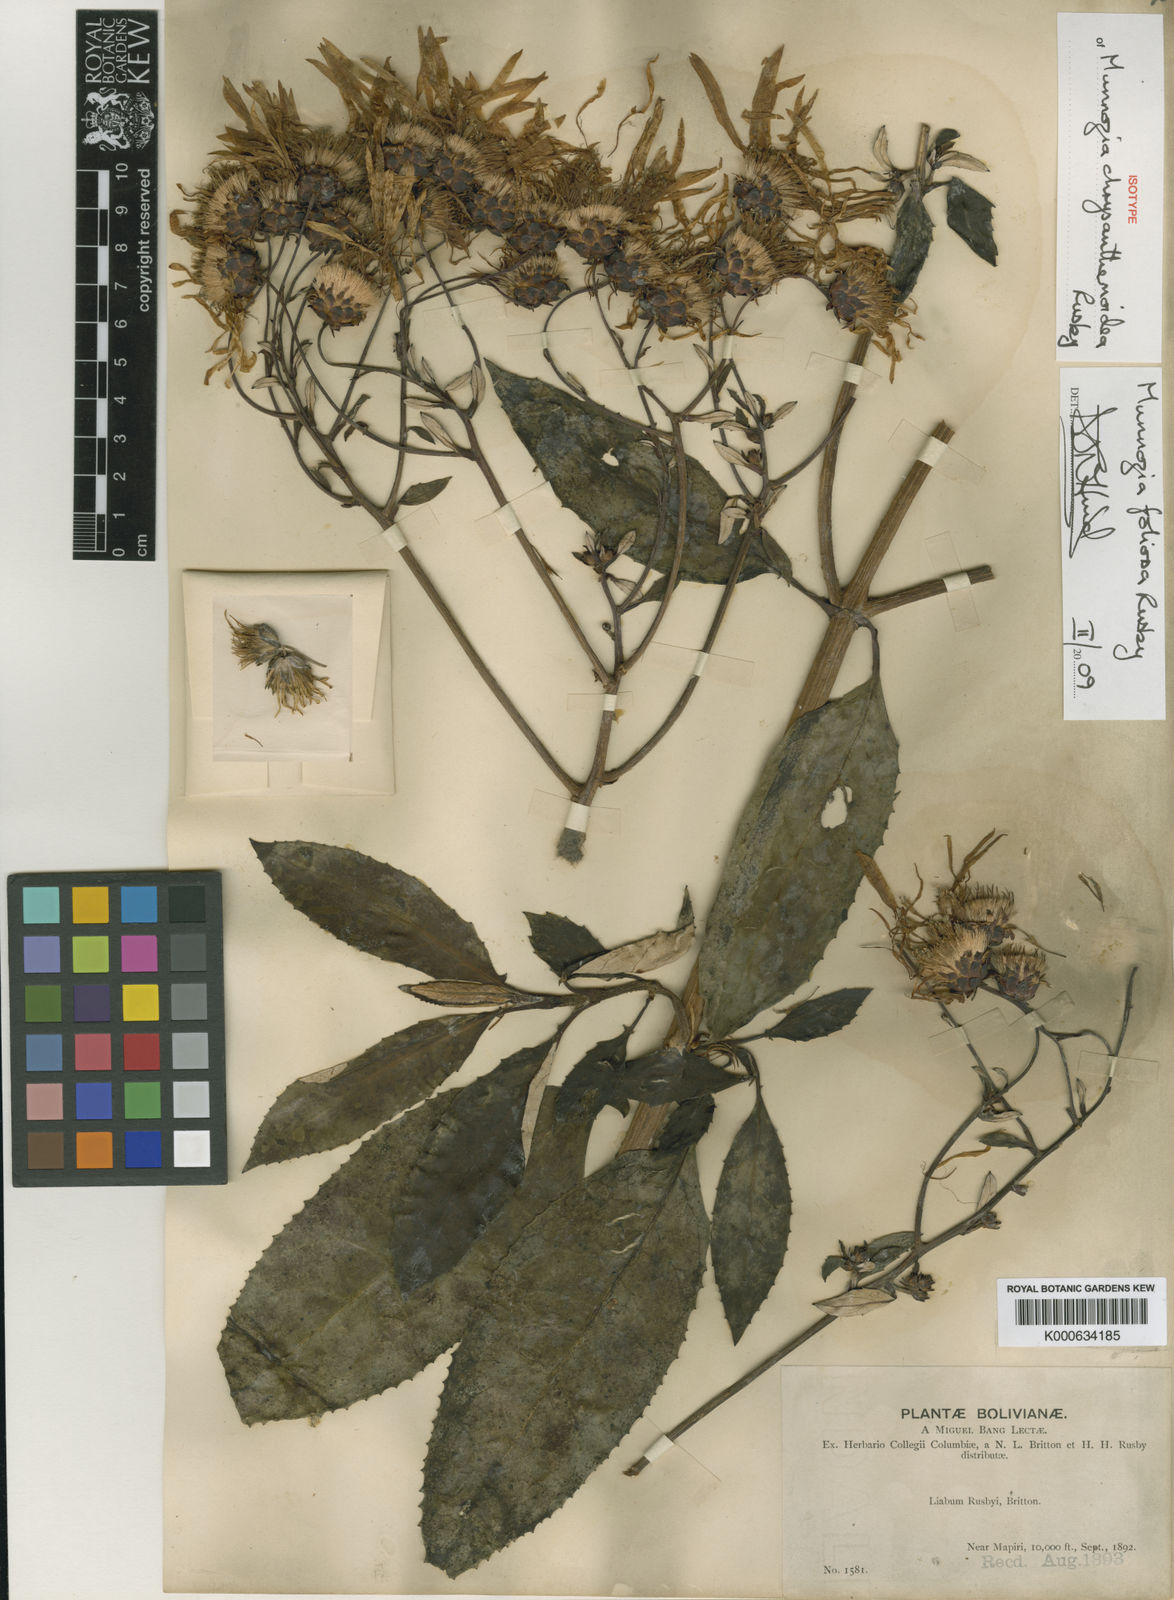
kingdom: Plantae
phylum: Tracheophyta
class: Magnoliopsida
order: Asterales
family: Asteraceae
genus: Munnozia
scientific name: Munnozia foliosa
